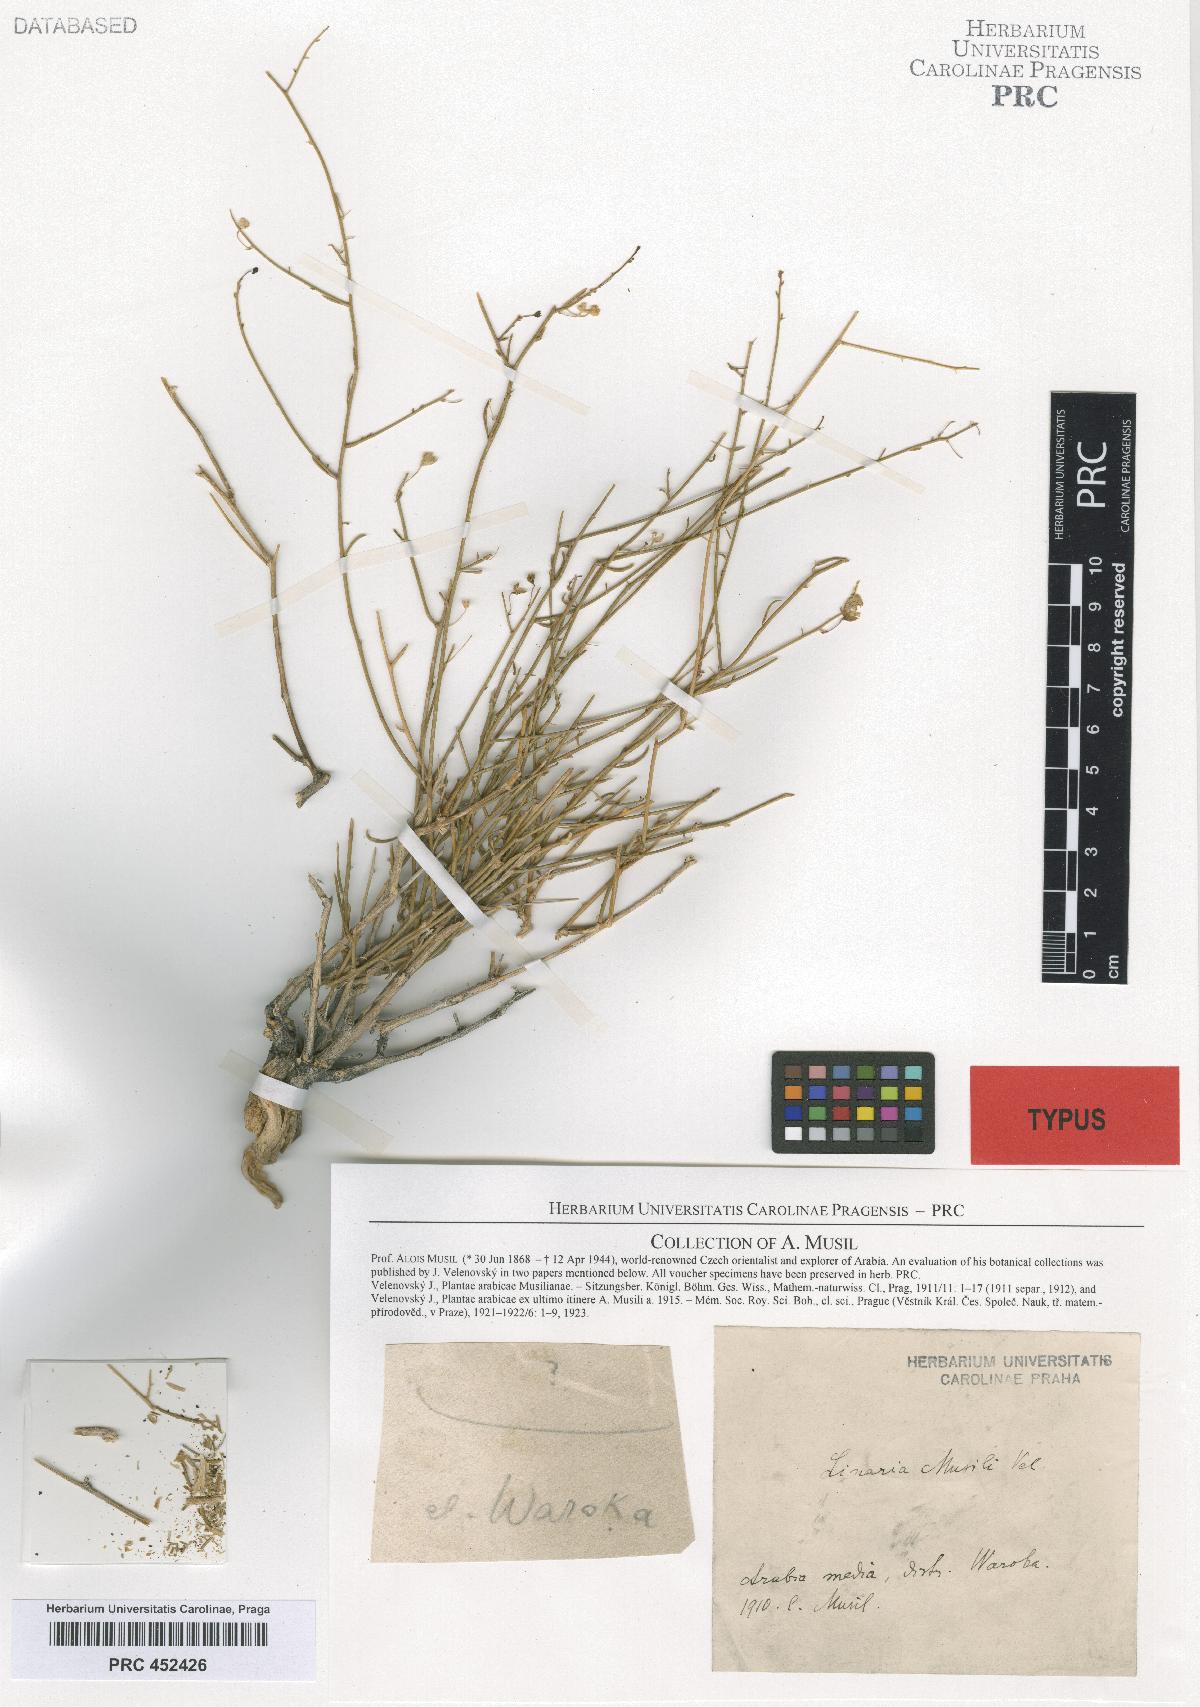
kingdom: Plantae
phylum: Tracheophyta
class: Magnoliopsida
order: Lamiales
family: Plantaginaceae
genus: Linaria
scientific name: Linaria musilii
